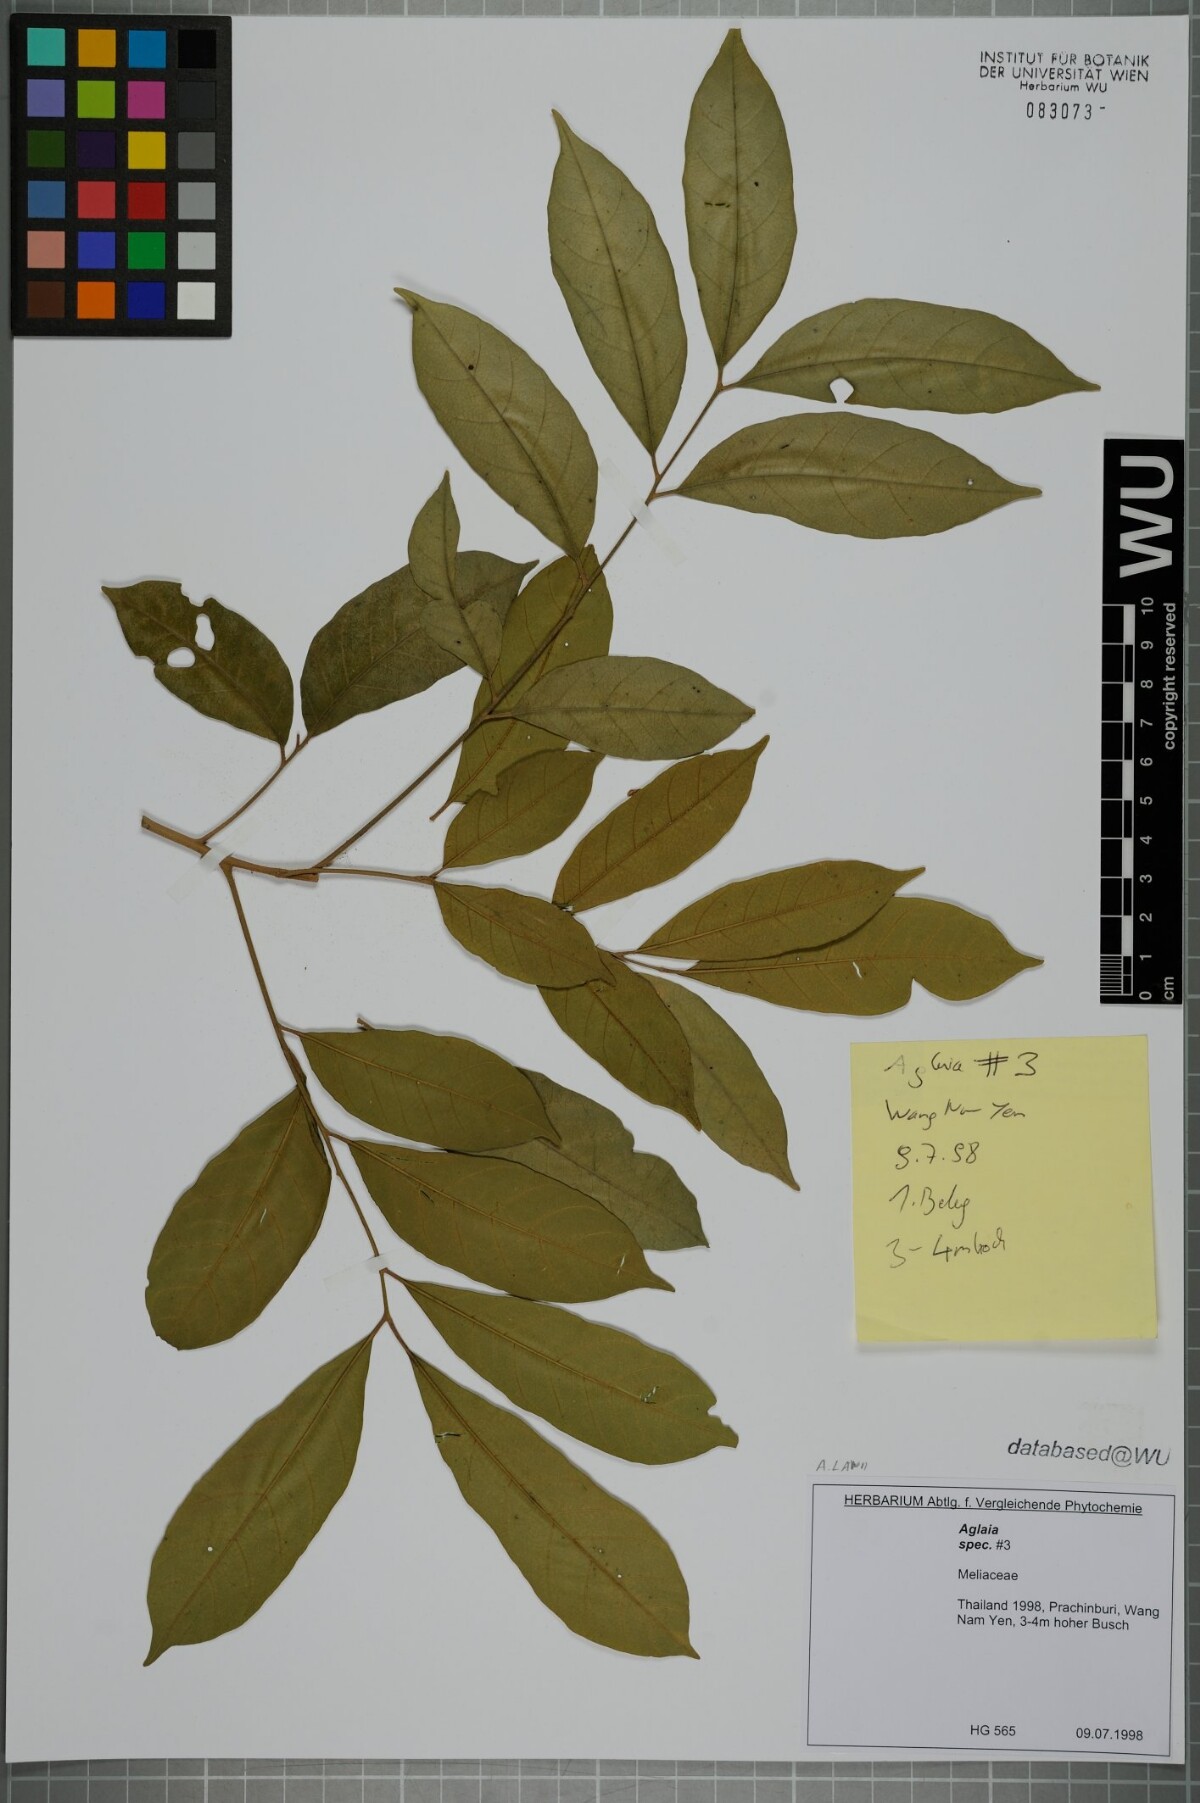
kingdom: Plantae
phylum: Tracheophyta
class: Magnoliopsida
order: Sapindales
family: Meliaceae
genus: Aglaia
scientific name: Aglaia lawii
